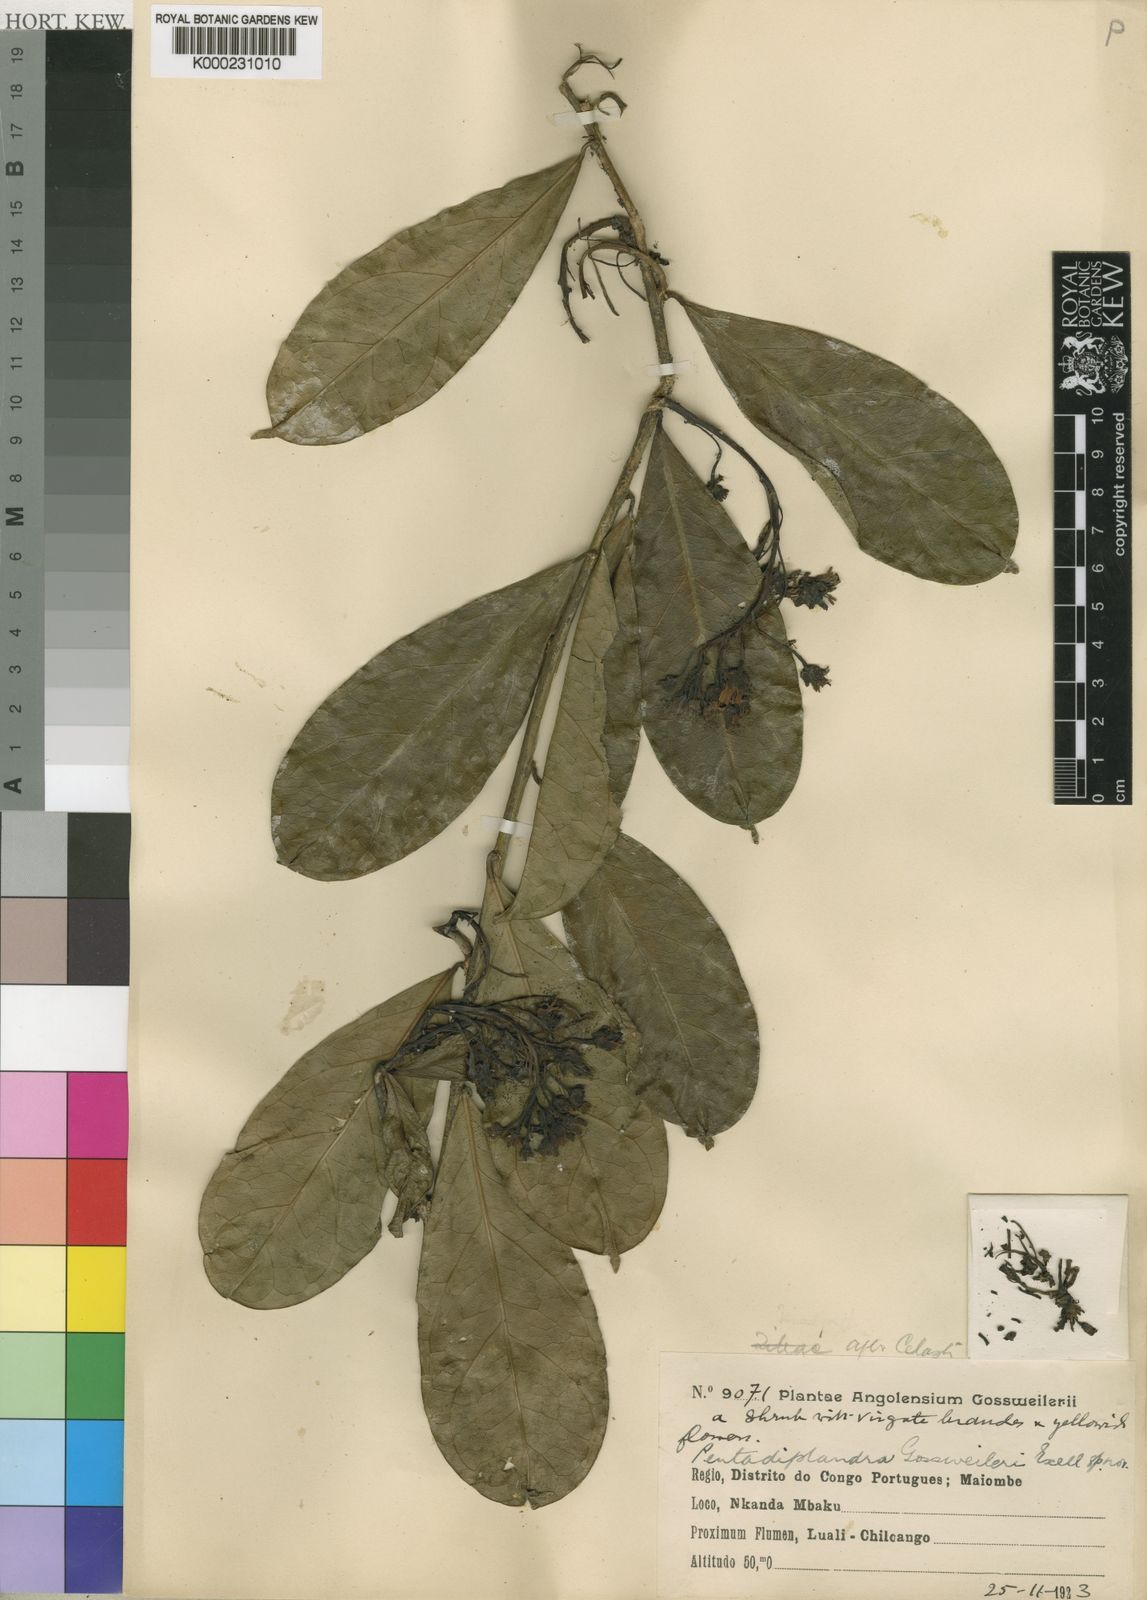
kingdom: Plantae
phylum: Tracheophyta
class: Magnoliopsida
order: Brassicales
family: Pentadiplandraceae
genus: Pentadiplandra
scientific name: Pentadiplandra brazzeana
